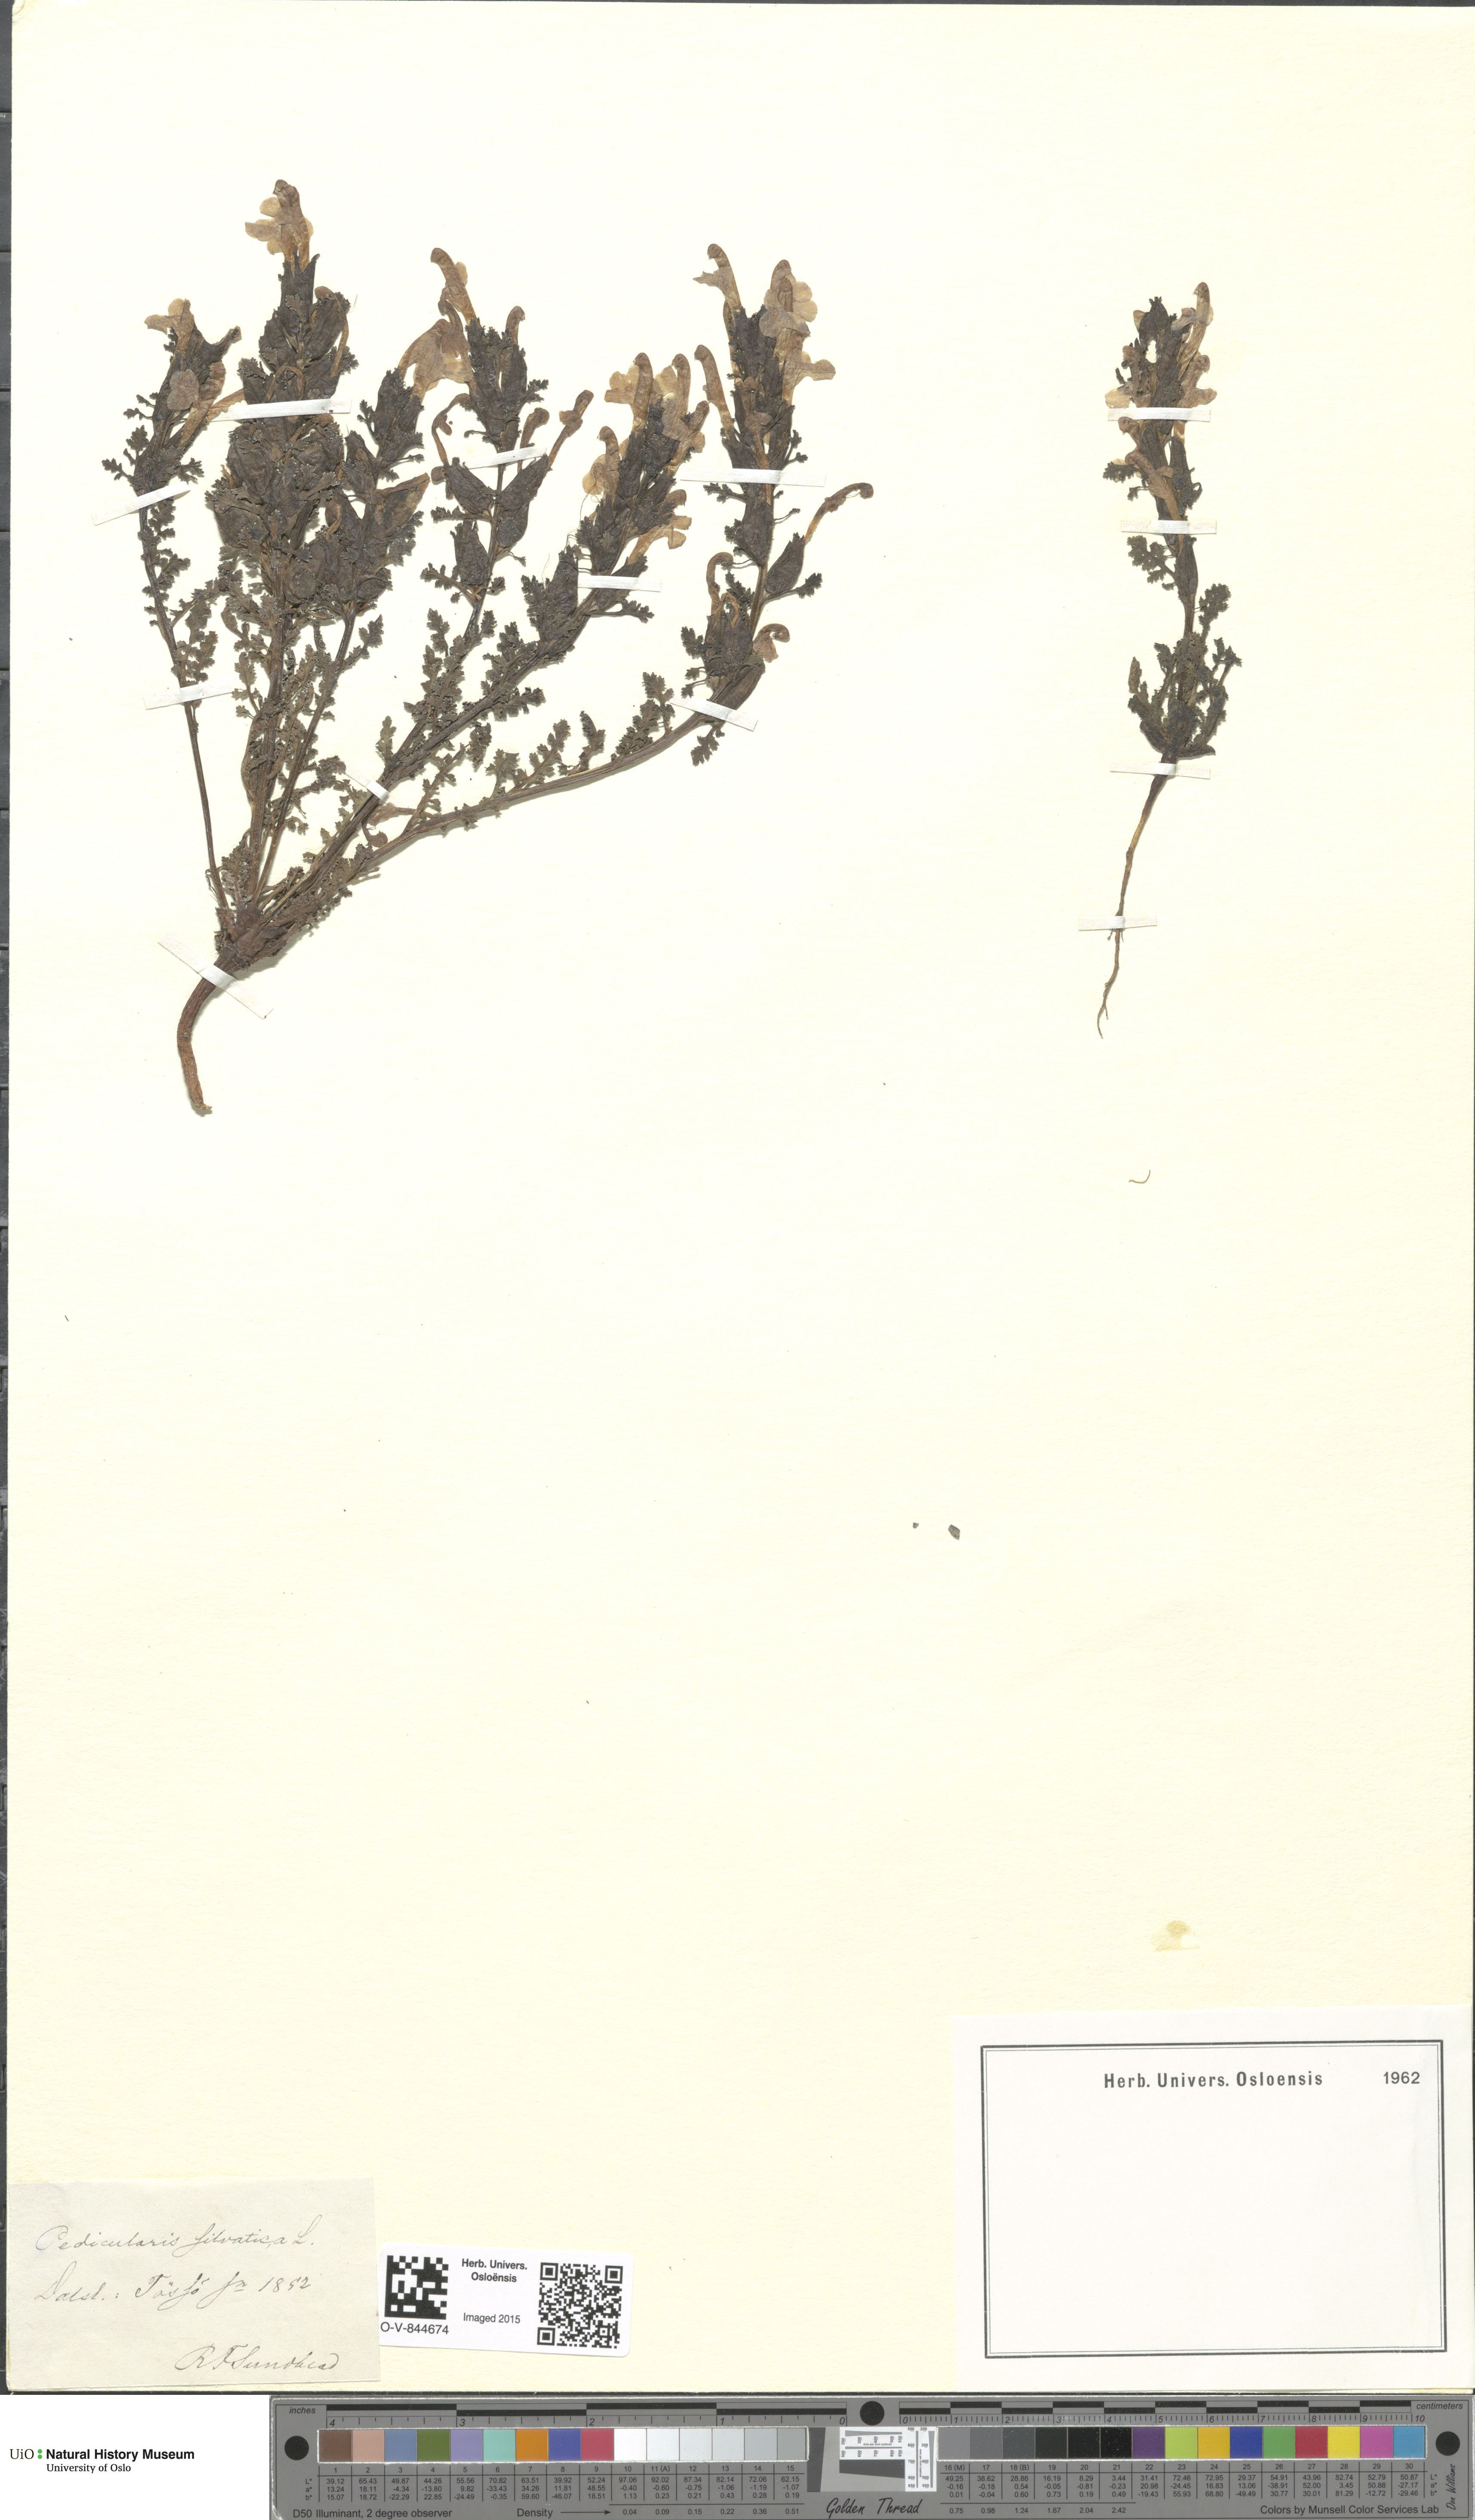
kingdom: Plantae
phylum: Tracheophyta
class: Magnoliopsida
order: Lamiales
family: Orobanchaceae
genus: Pedicularis
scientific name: Pedicularis sylvatica
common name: Lousewort
